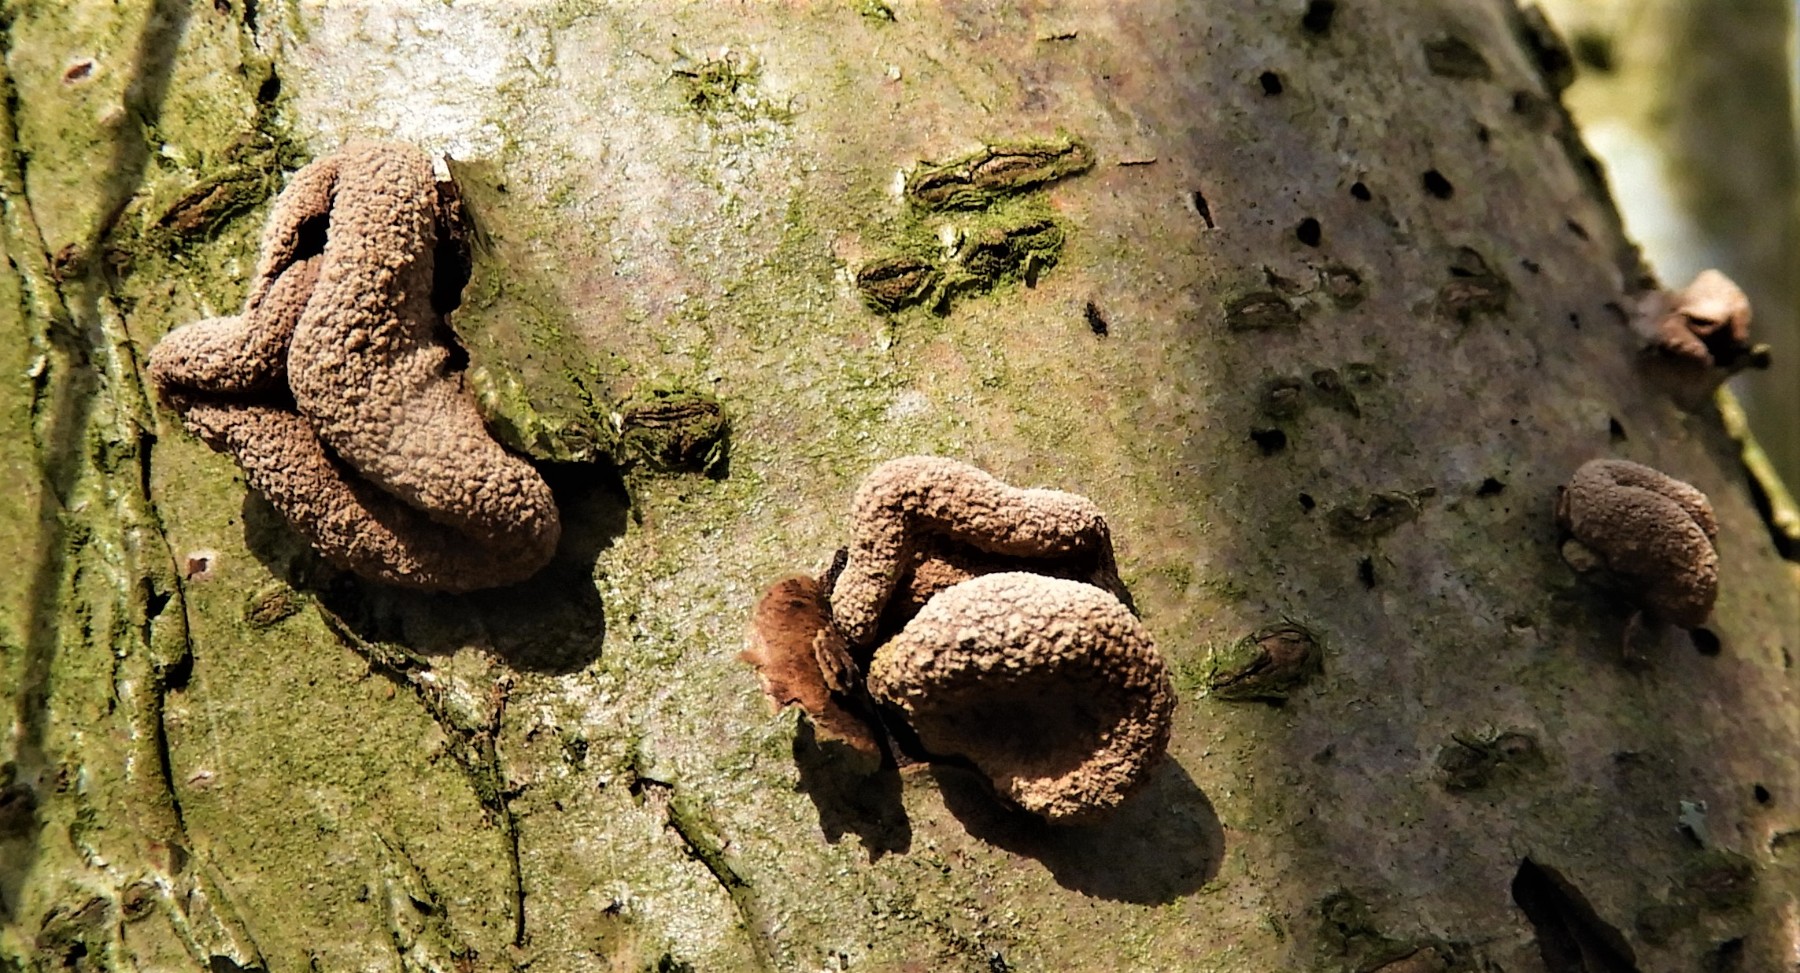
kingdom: Fungi
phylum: Ascomycota
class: Leotiomycetes
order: Helotiales
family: Cenangiaceae
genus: Encoelia
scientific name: Encoelia furfuracea
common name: hassel-læderskive
